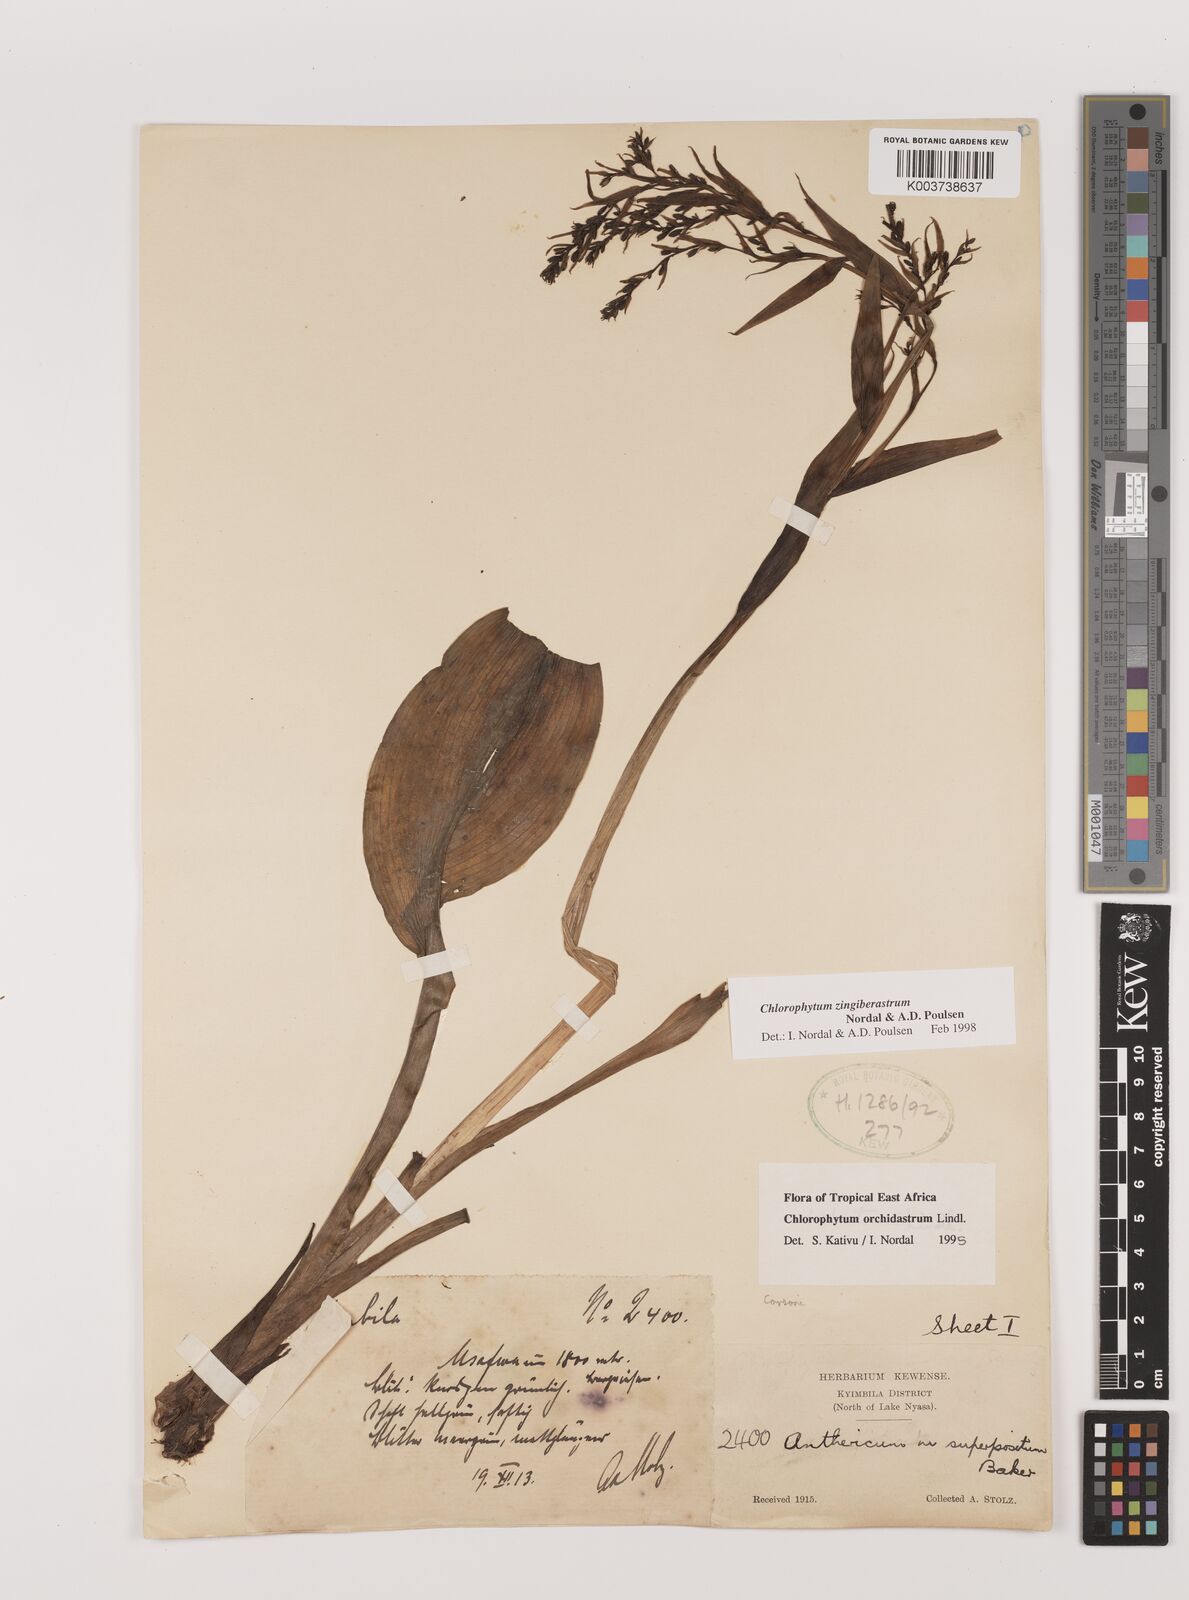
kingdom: Plantae
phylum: Tracheophyta
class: Liliopsida
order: Asparagales
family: Asparagaceae
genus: Chlorophytum
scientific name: Chlorophytum zingiberastrum
